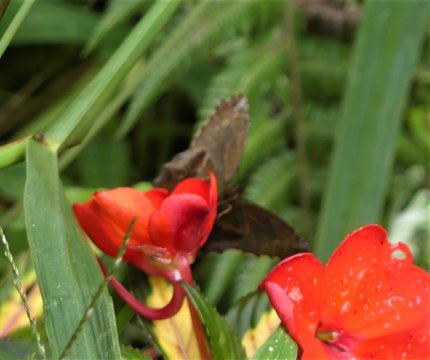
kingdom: Animalia
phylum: Arthropoda
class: Insecta
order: Lepidoptera
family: Nymphalidae
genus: Panyapedaliodes
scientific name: Panyapedaliodes drymaea
